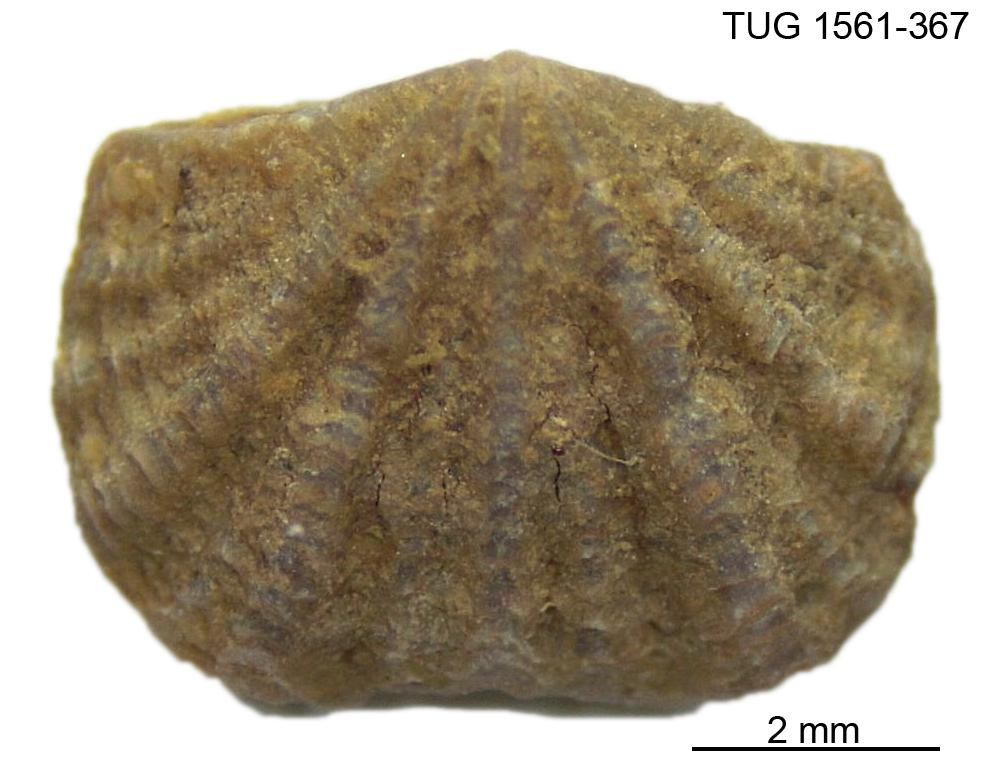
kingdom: Animalia
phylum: Brachiopoda
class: Rhynchonellata
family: Hesperorthidae
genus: Ptychopleurella
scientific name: Ptychopleurella Orthis bouchardi
